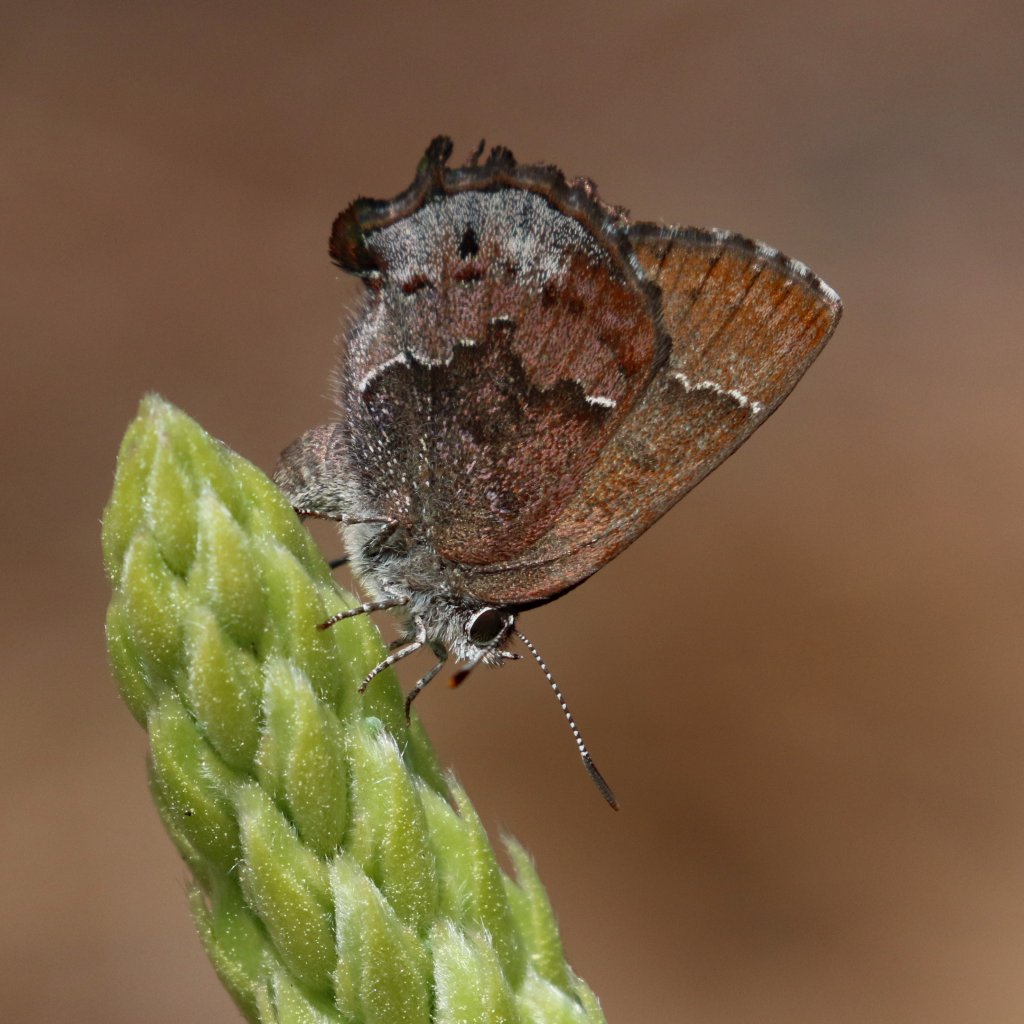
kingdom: Animalia
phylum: Arthropoda
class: Insecta
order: Lepidoptera
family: Lycaenidae
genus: Thecla
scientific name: Thecla irus
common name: Frosted Elfin
